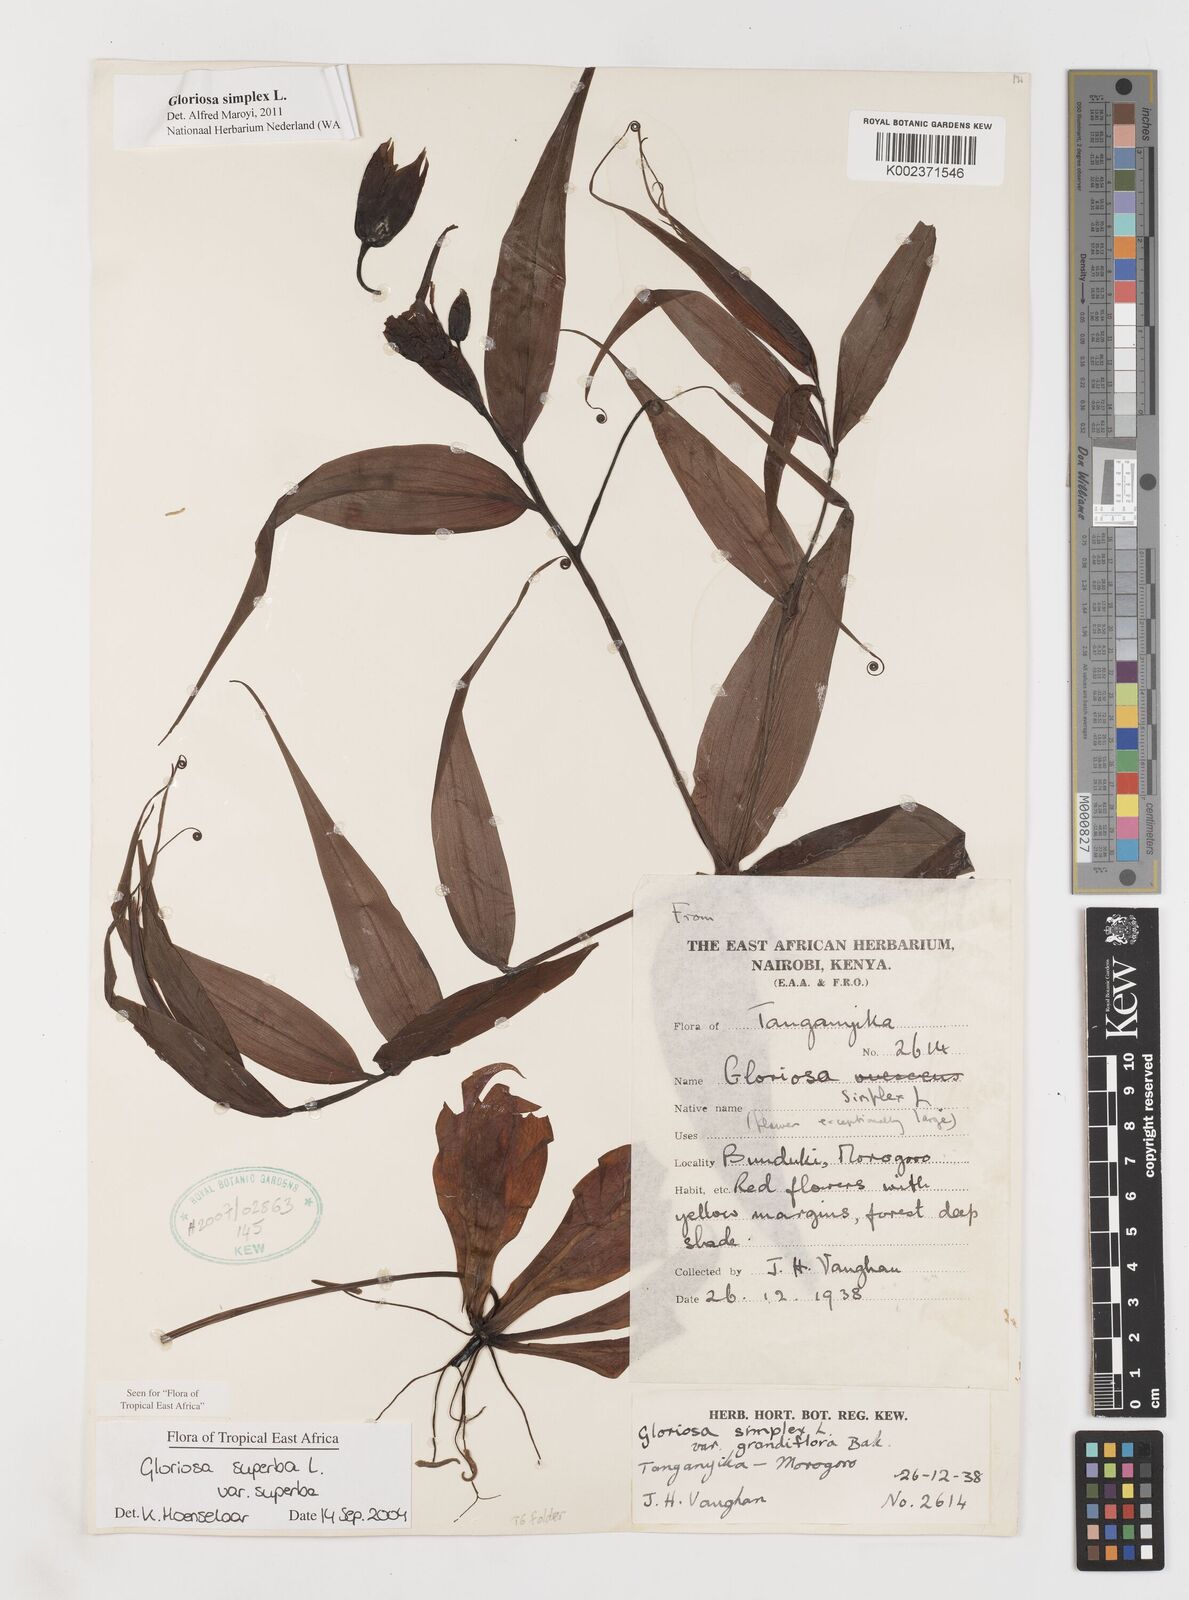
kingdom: Plantae
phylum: Tracheophyta
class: Liliopsida
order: Liliales
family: Colchicaceae
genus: Gloriosa
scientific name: Gloriosa simplex
